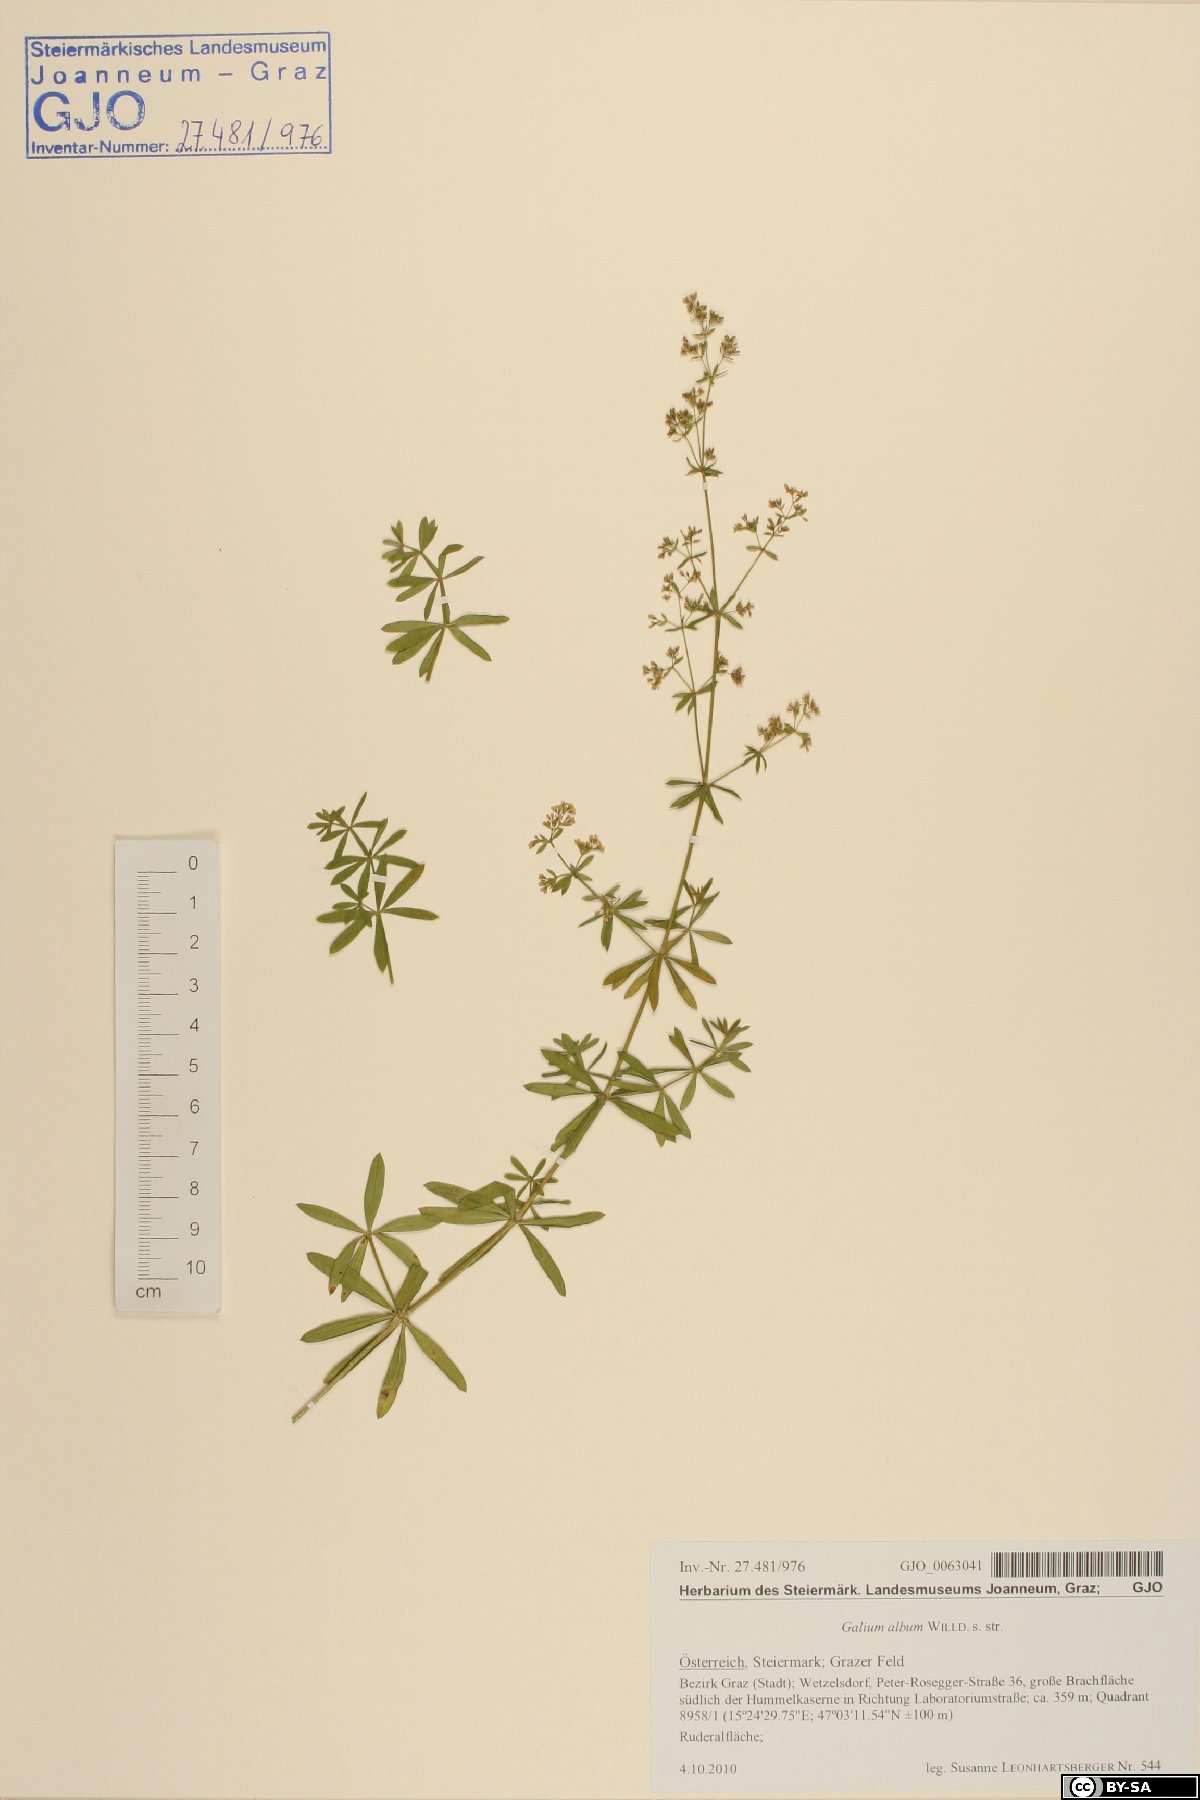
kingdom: Plantae
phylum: Tracheophyta
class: Magnoliopsida
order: Gentianales
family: Rubiaceae
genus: Galium
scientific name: Galium album
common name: White bedstraw
